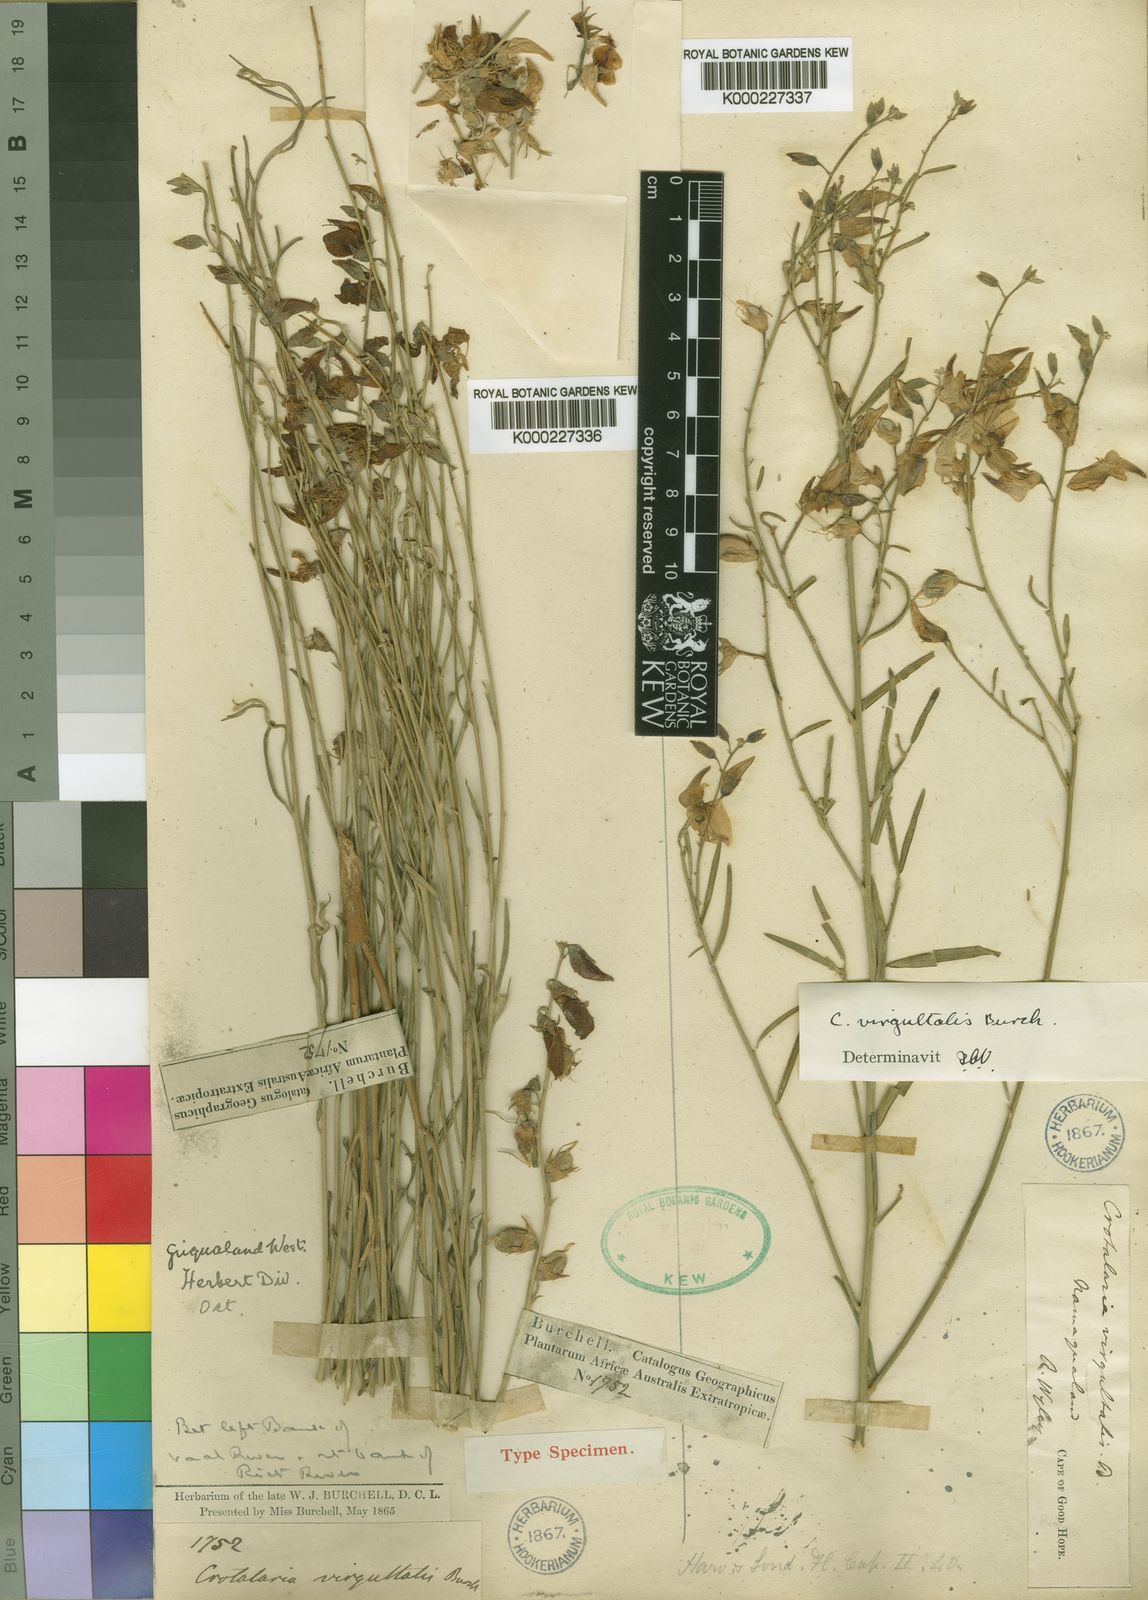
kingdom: Plantae
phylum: Tracheophyta
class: Magnoliopsida
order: Fabales
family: Fabaceae
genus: Crotalaria
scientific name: Crotalaria virgultalis
